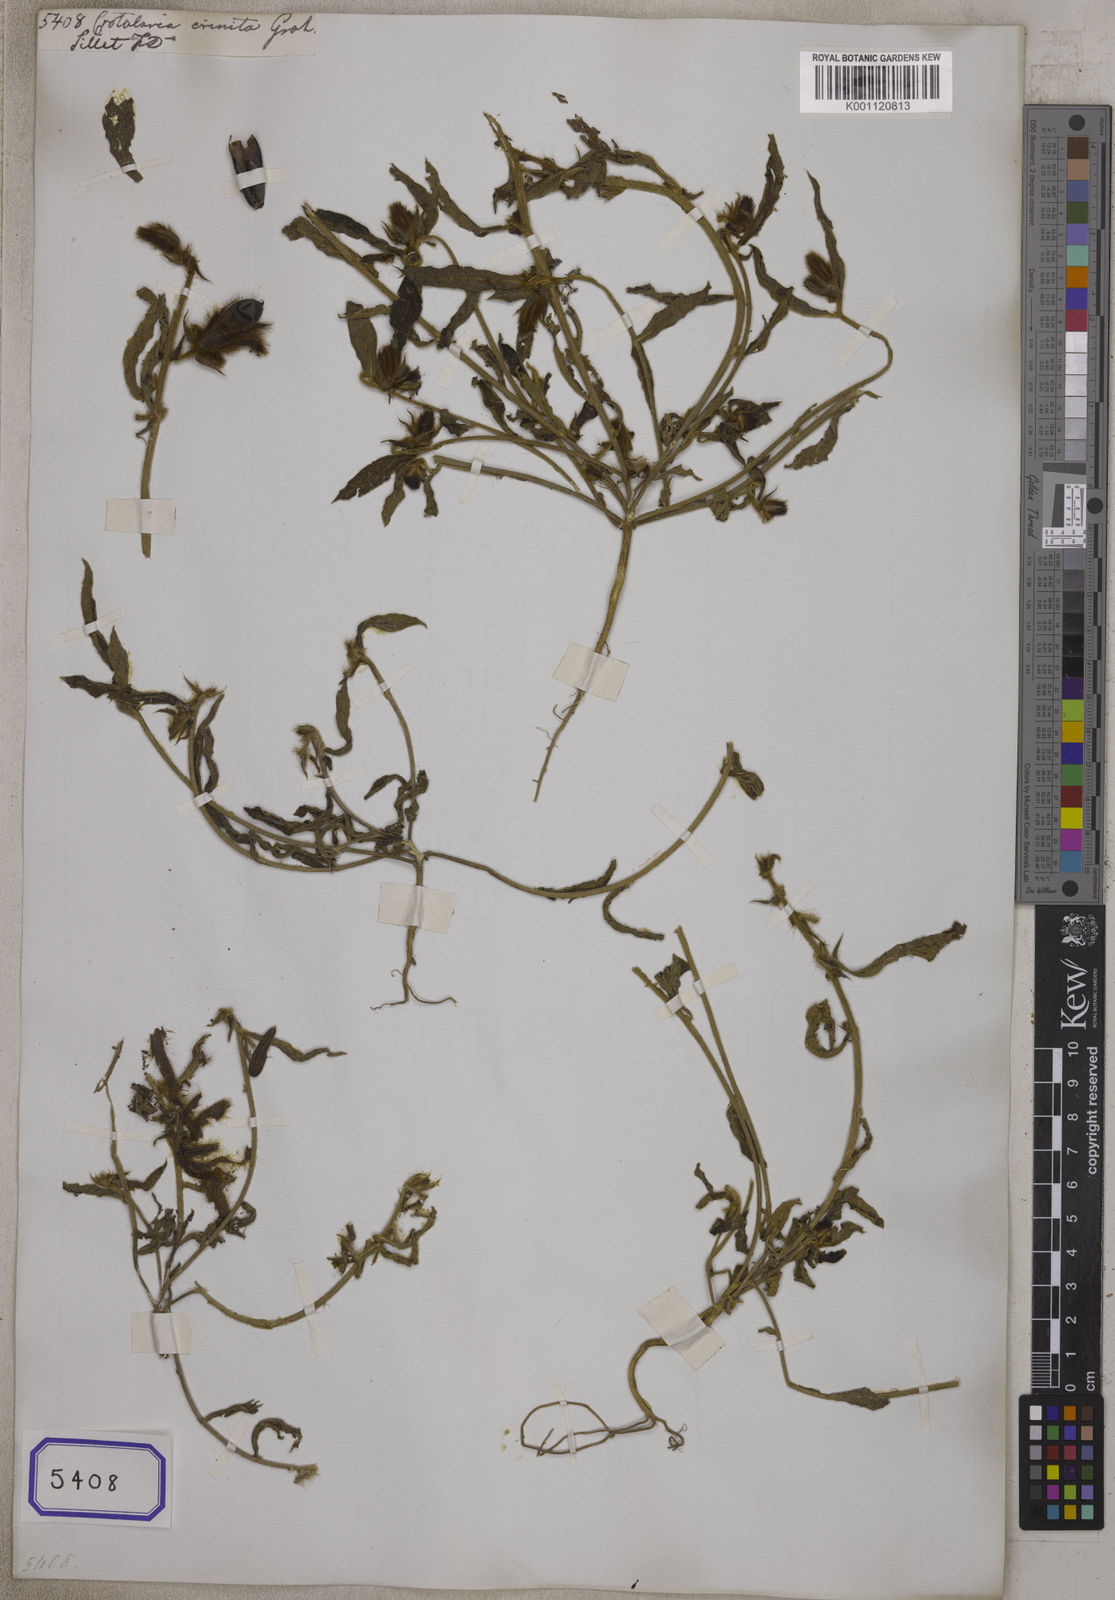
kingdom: Plantae
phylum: Tracheophyta
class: Magnoliopsida
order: Fabales
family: Fabaceae
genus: Crotalaria
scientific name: Crotalaria calycina
